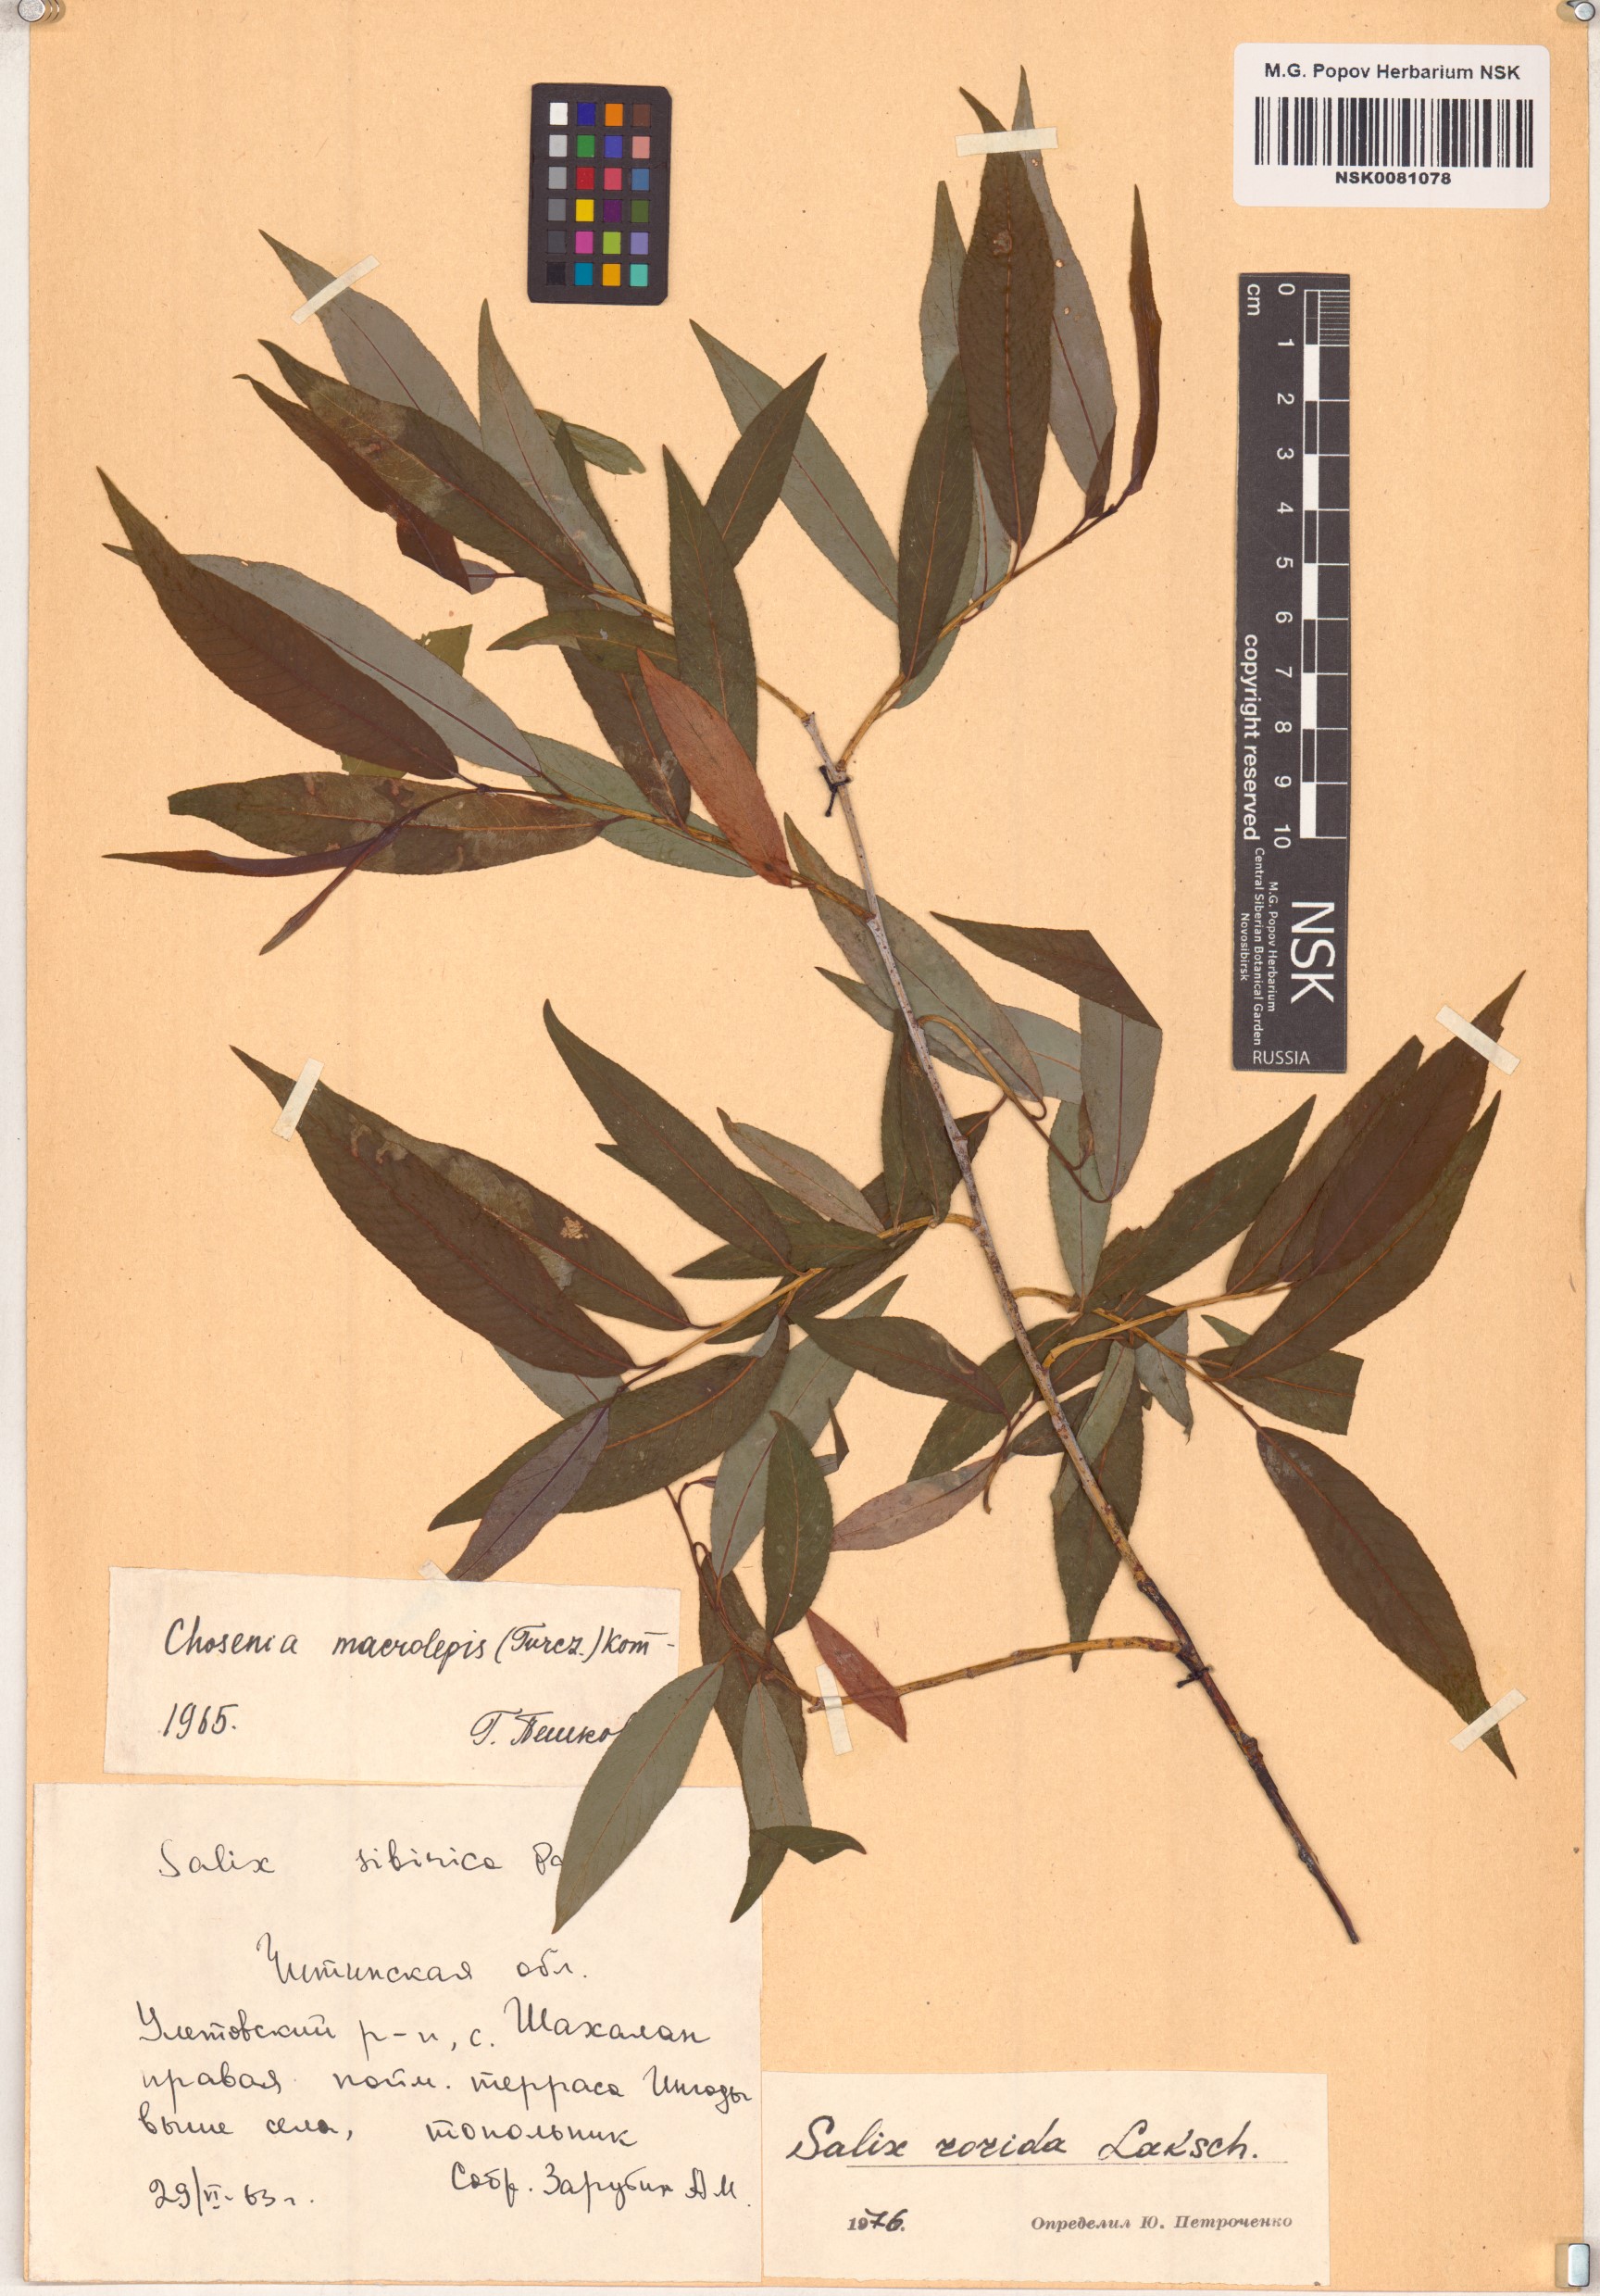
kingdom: Plantae
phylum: Tracheophyta
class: Magnoliopsida
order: Malpighiales
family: Salicaceae
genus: Salix
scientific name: Salix rorida
